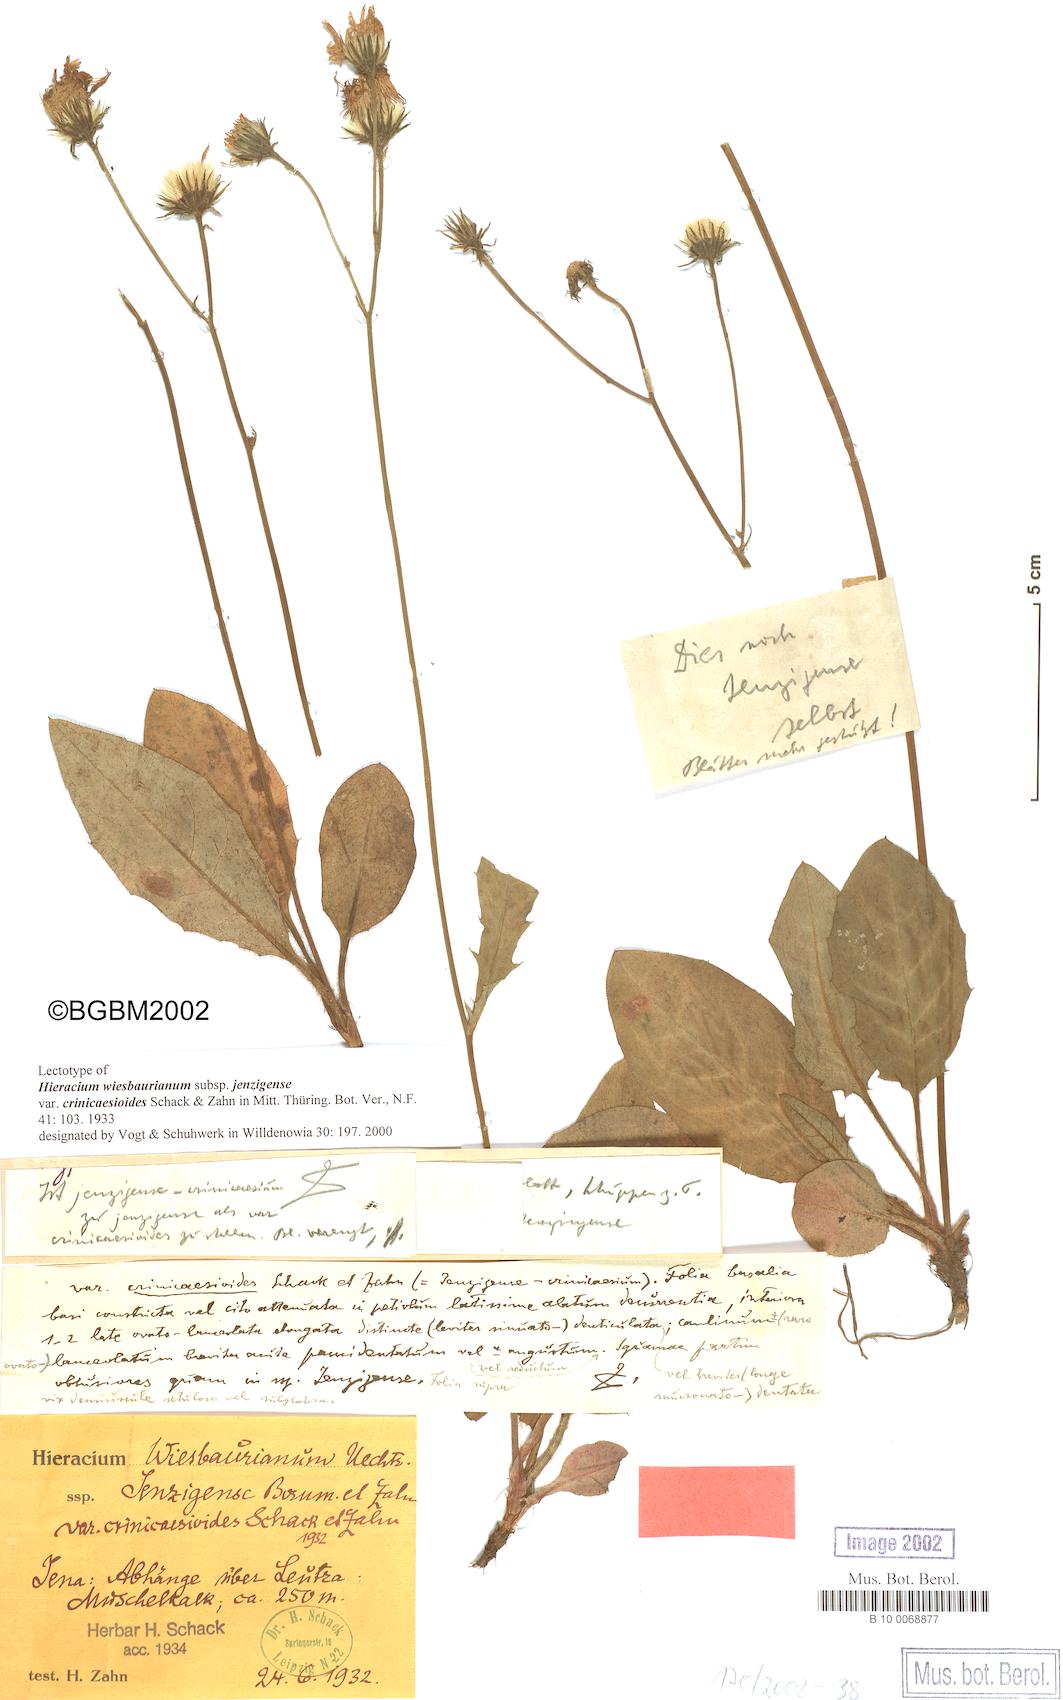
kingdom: Plantae
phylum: Tracheophyta
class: Magnoliopsida
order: Asterales
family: Asteraceae
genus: Hieracium
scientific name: Hieracium hypochoeroides
